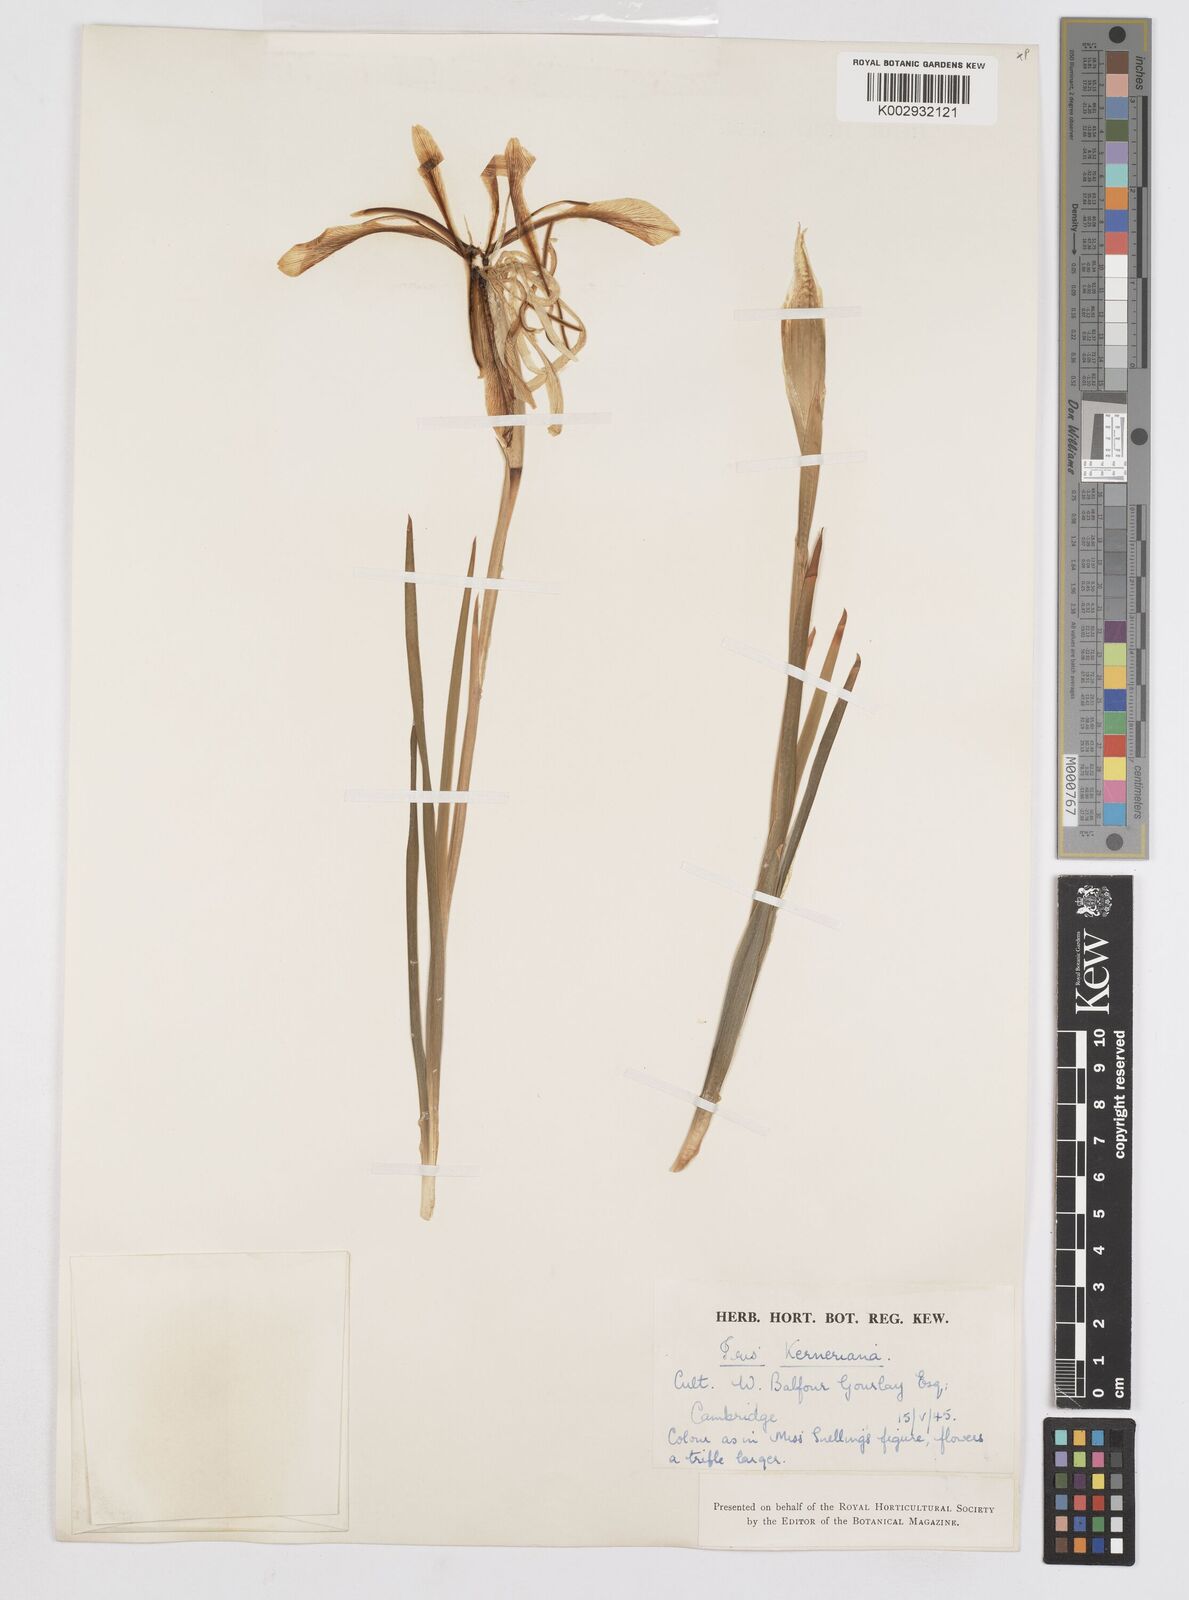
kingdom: Plantae
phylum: Tracheophyta
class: Liliopsida
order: Asparagales
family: Iridaceae
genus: Iris
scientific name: Iris haussknechtii
